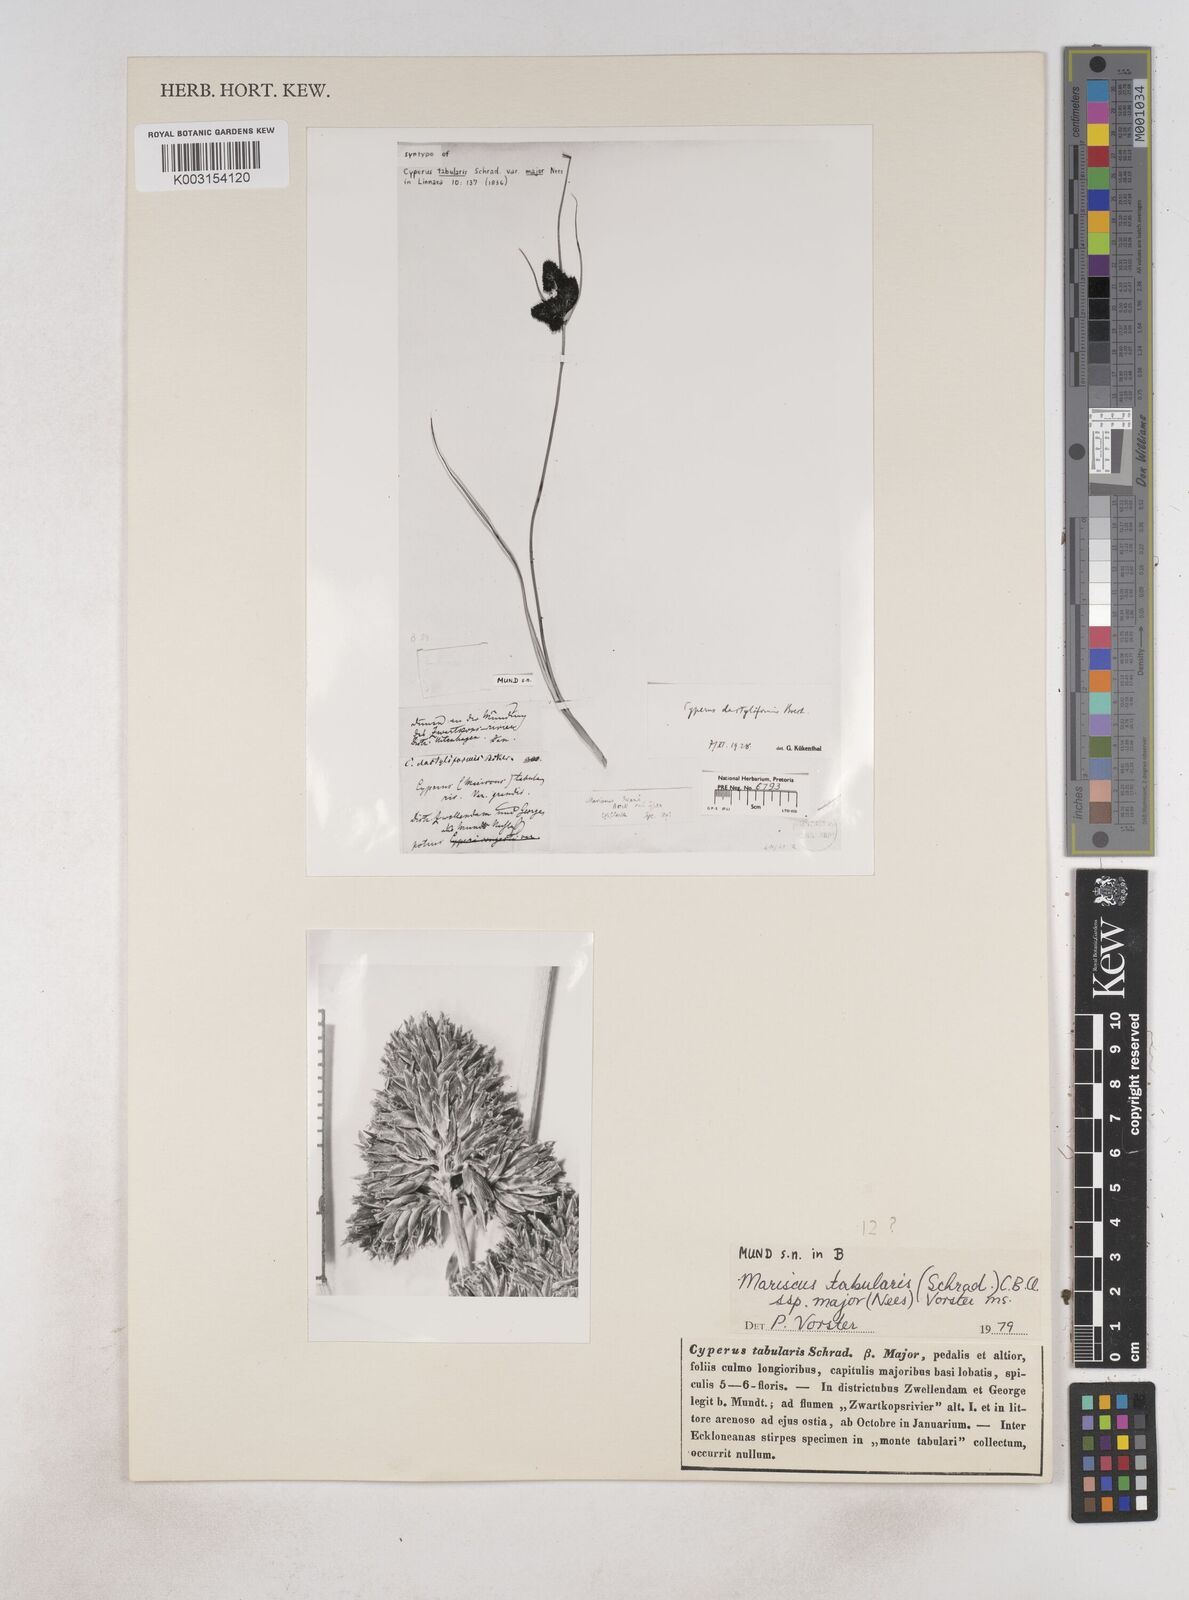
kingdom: Plantae
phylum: Tracheophyta
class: Liliopsida
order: Poales
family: Cyperaceae
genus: Cyperus
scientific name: Cyperus tabularis
